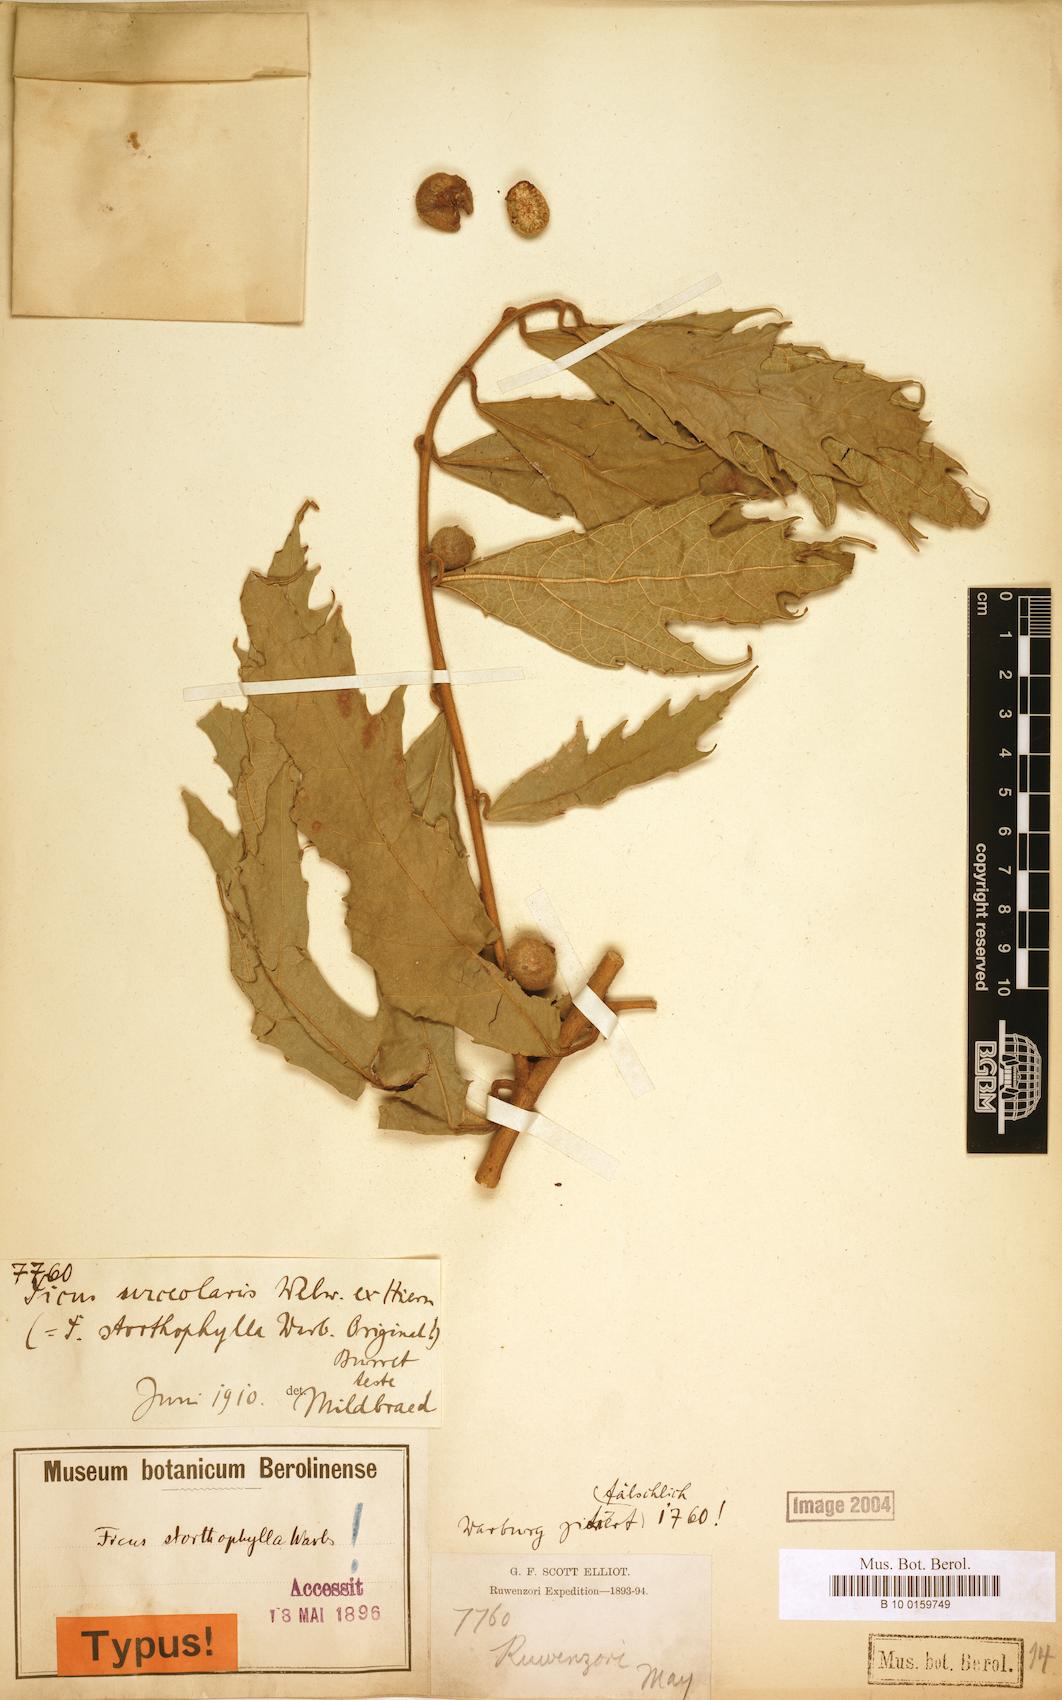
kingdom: Plantae
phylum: Tracheophyta
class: Magnoliopsida
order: Rosales
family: Moraceae
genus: Ficus
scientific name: Ficus asperifolia
